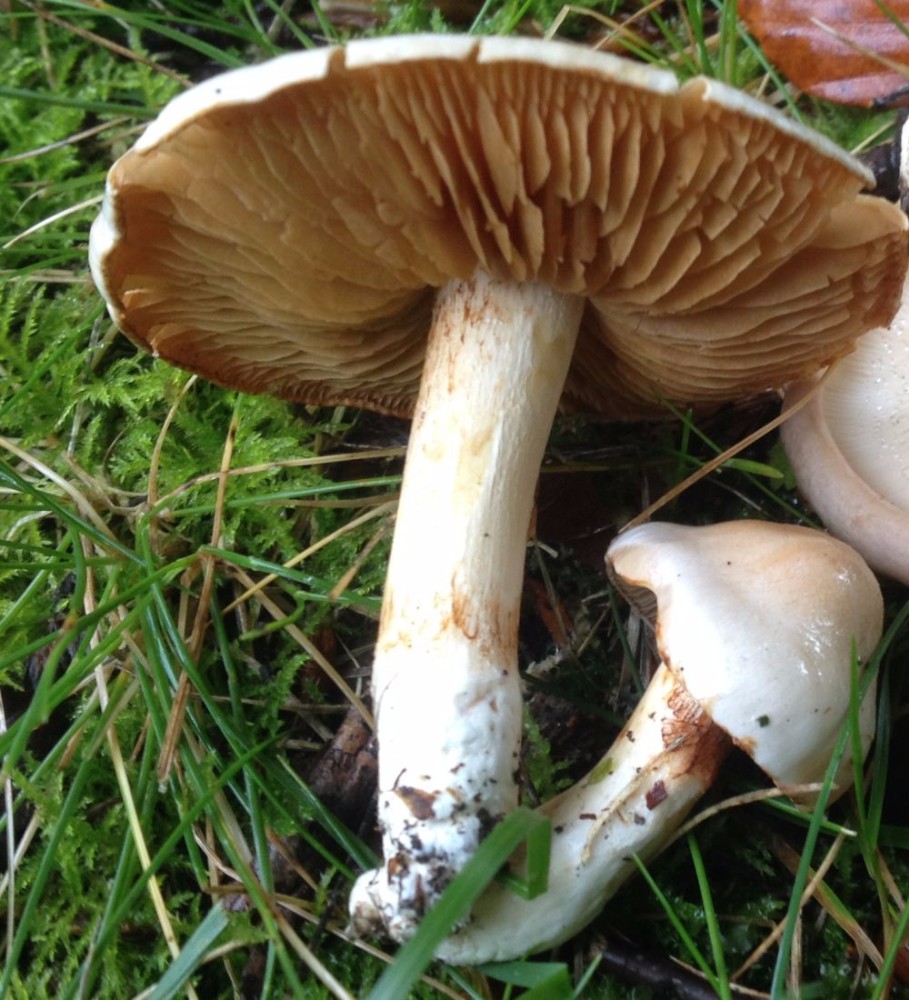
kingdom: Fungi
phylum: Basidiomycota
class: Agaricomycetes
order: Agaricales
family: Cortinariaceae
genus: Thaxterogaster
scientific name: Thaxterogaster barbatus
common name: elfenbens-slørhat
